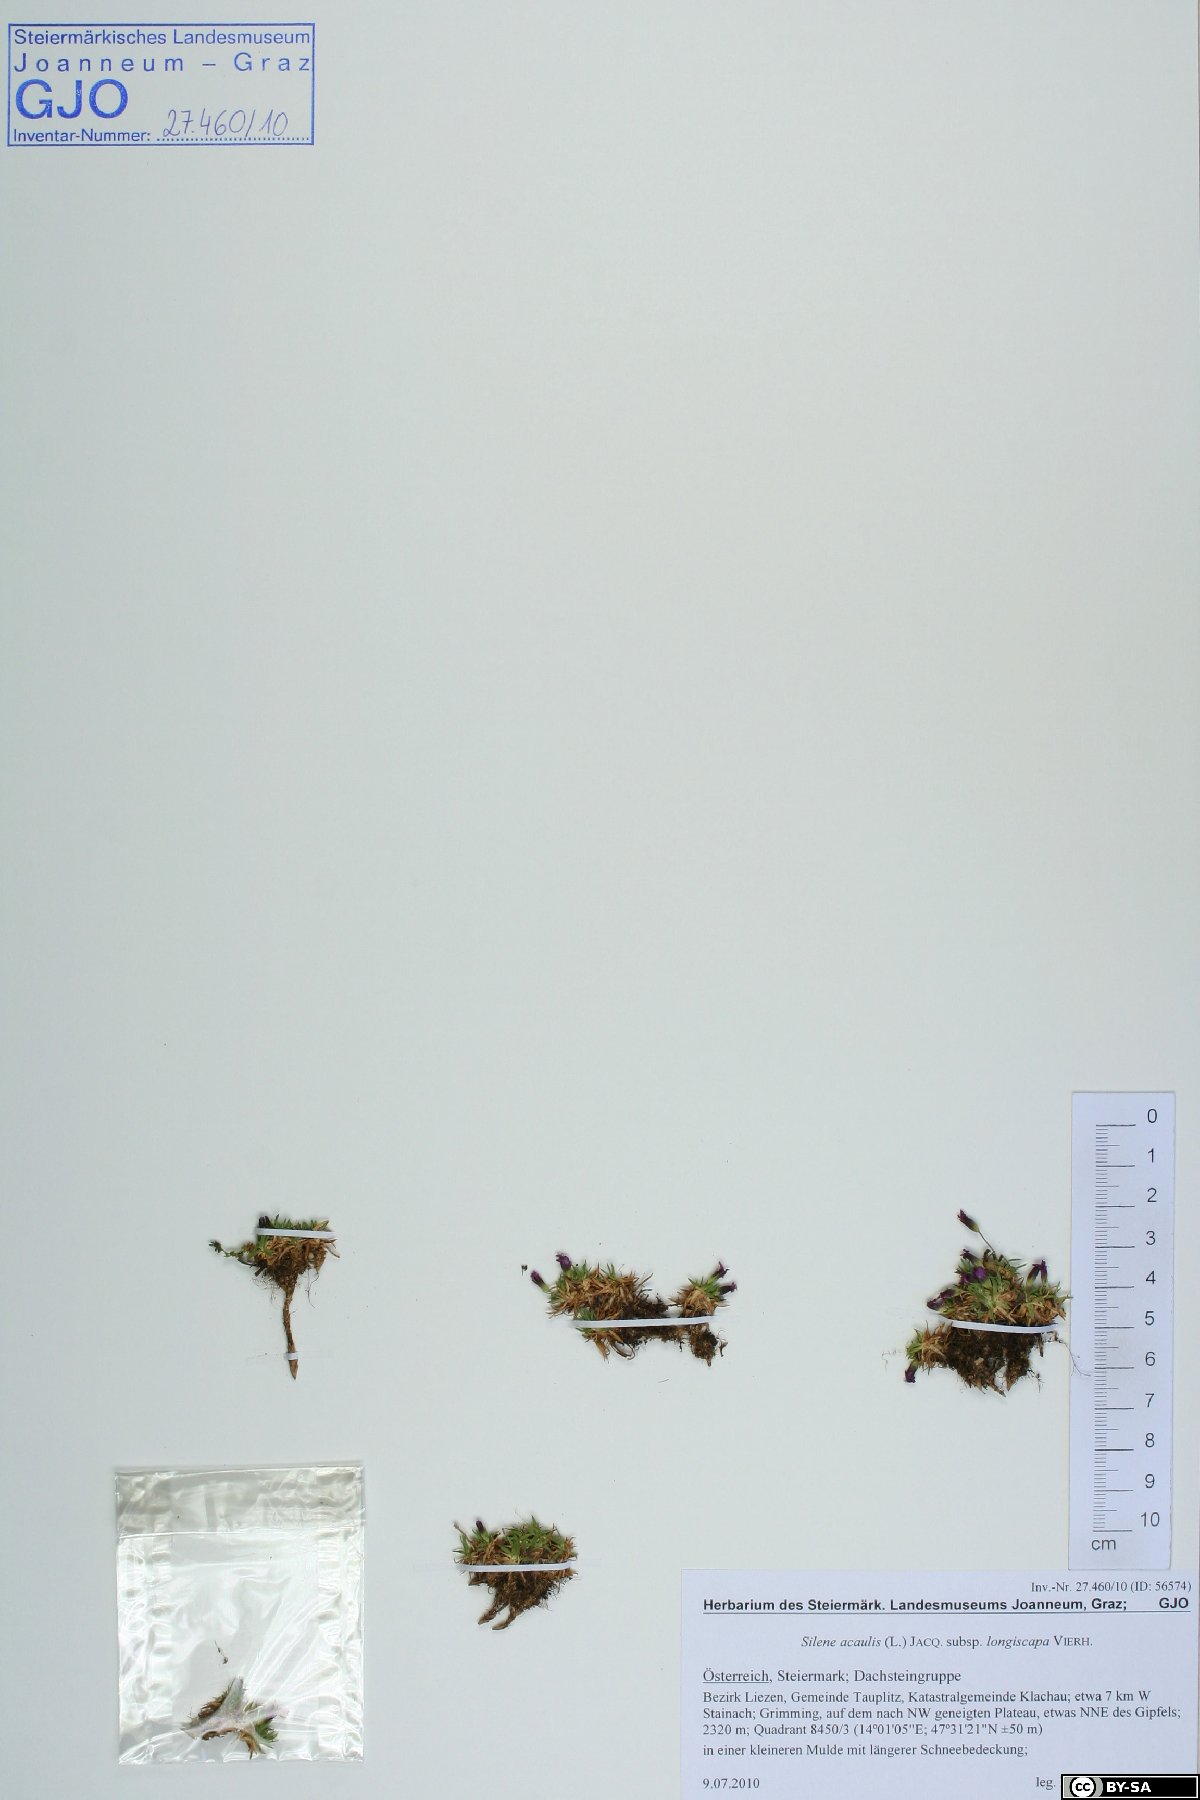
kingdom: Plantae
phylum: Tracheophyta
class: Magnoliopsida
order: Caryophyllales
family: Caryophyllaceae
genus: Silene
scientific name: Silene acaulis
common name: Moss campion
